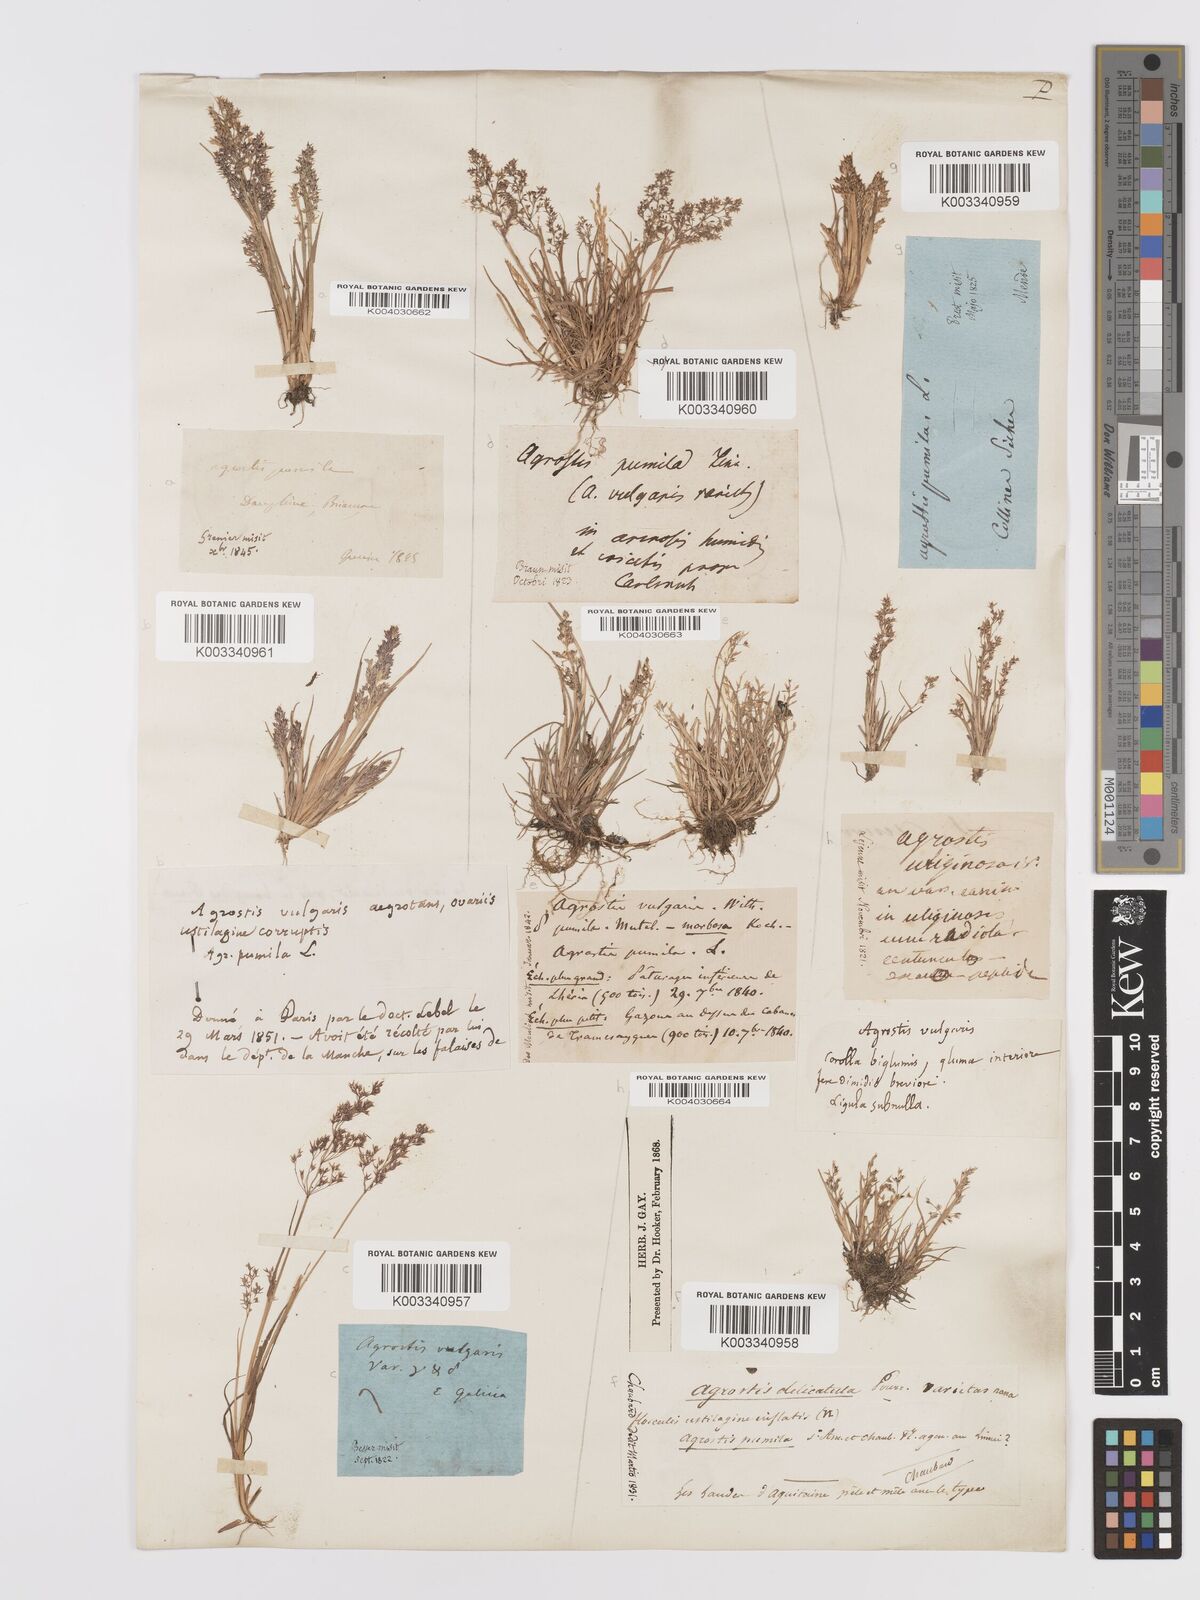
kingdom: Plantae
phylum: Tracheophyta
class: Liliopsida
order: Poales
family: Poaceae
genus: Agrostis
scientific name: Agrostis capillaris
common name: Colonial bentgrass
